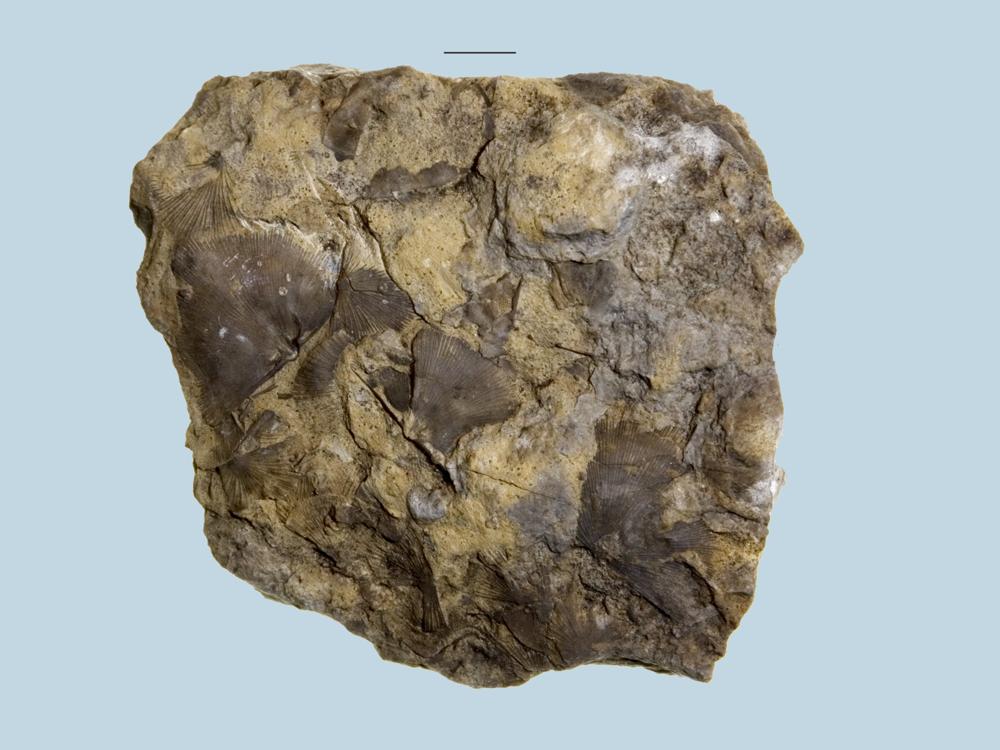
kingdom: Animalia
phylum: Brachiopoda
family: Strophomenidae
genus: Rafinesquina
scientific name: Rafinesquina Strophomena deltoidea
